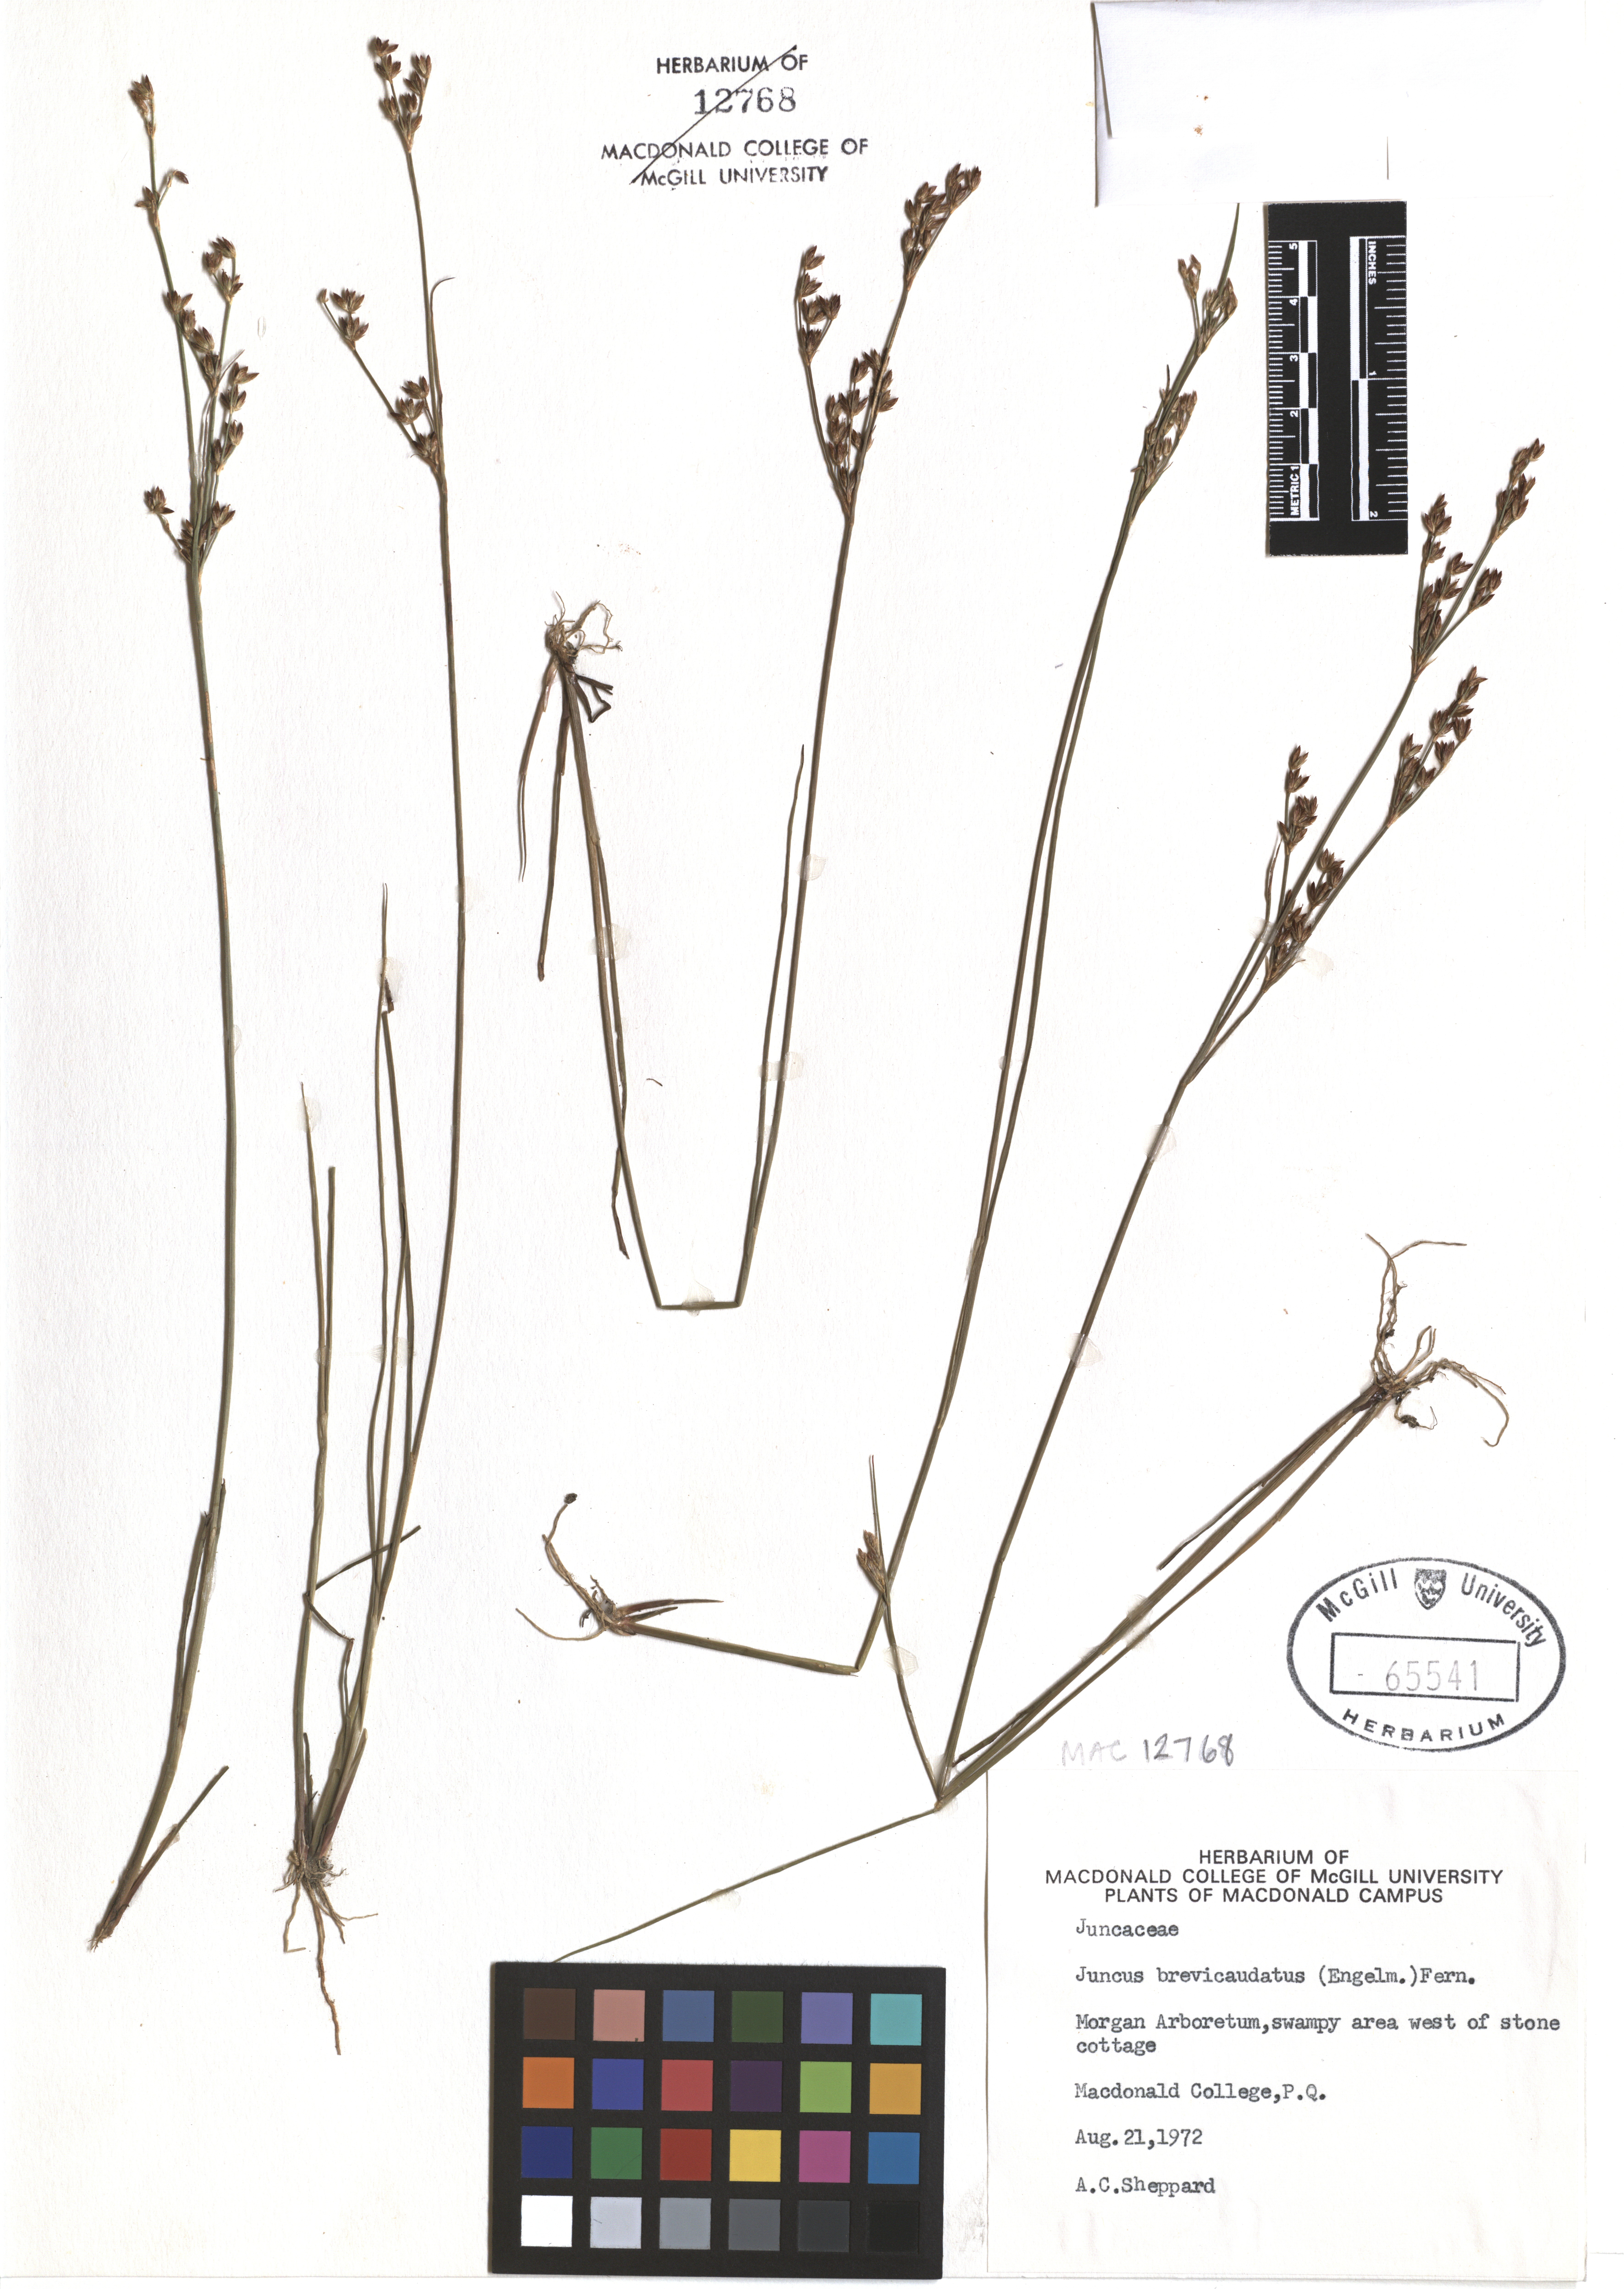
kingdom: Plantae
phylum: Tracheophyta
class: Liliopsida
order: Poales
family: Juncaceae
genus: Juncus
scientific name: Juncus brevicaudatus
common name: Narrow-panicle rush
